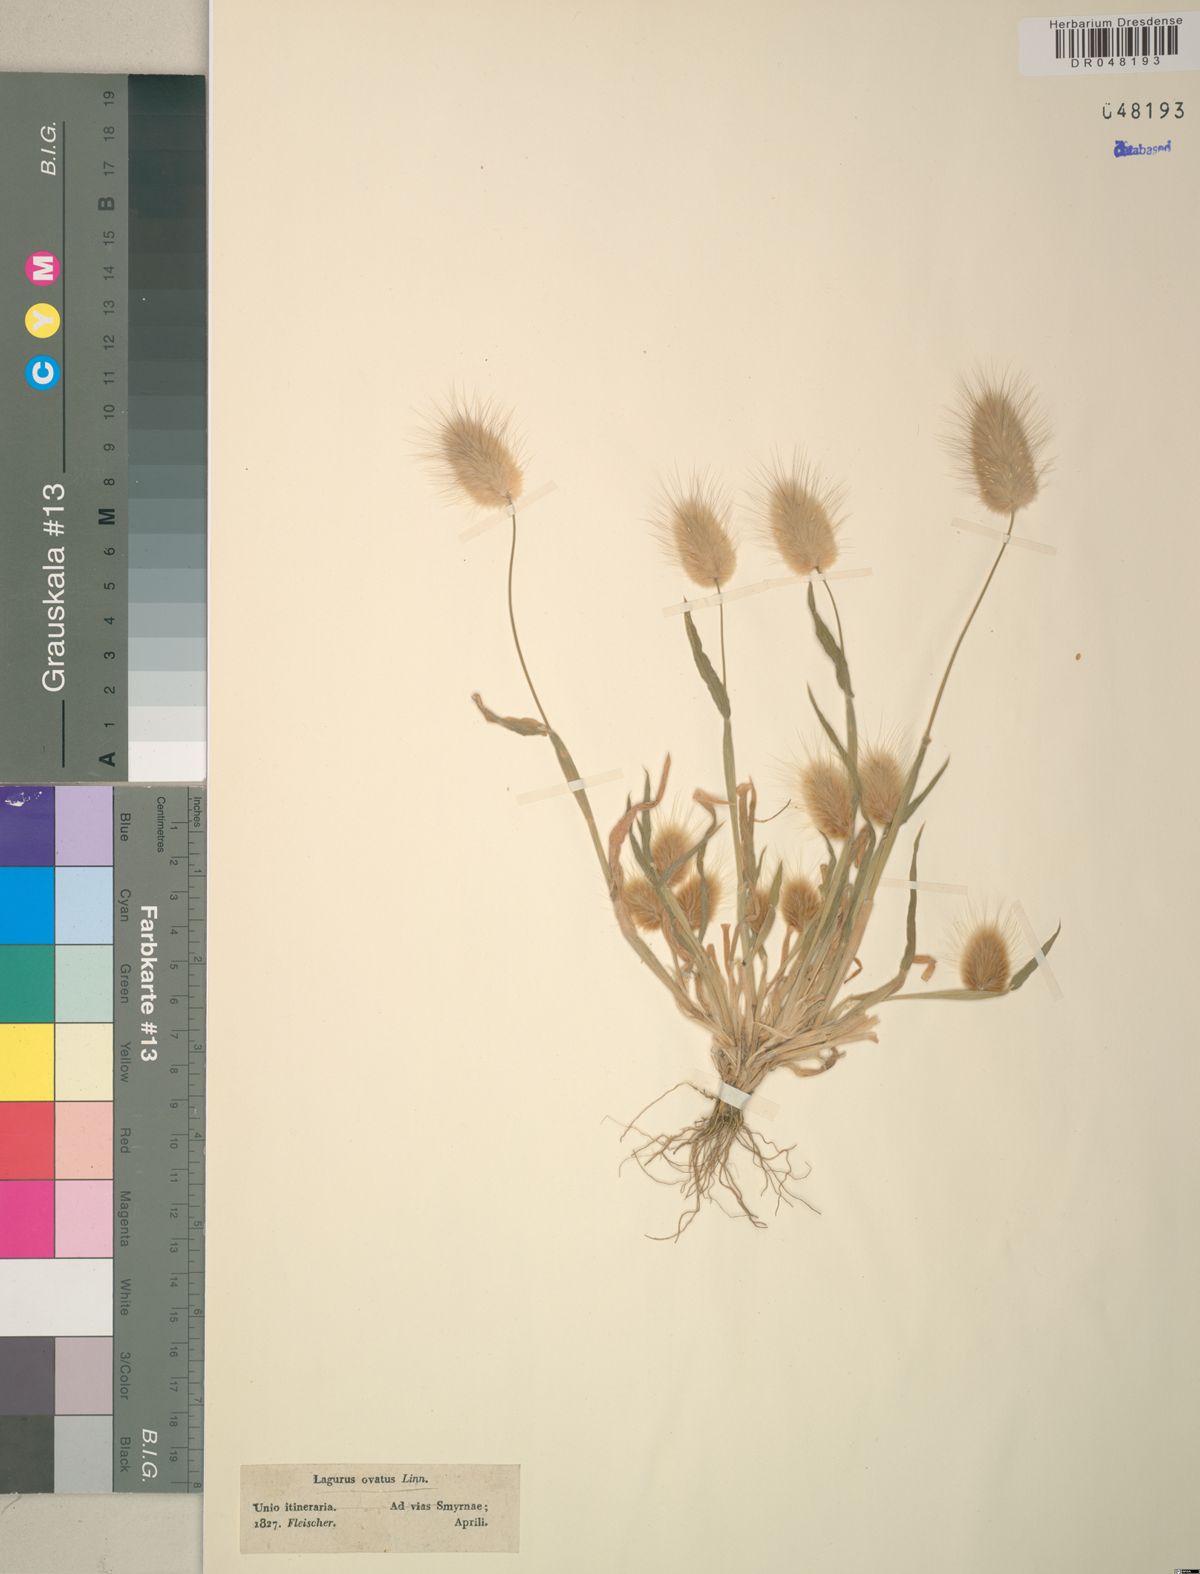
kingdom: Plantae
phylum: Tracheophyta
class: Liliopsida
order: Poales
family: Poaceae
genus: Lagurus
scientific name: Lagurus ovatus
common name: Hare's-tail
